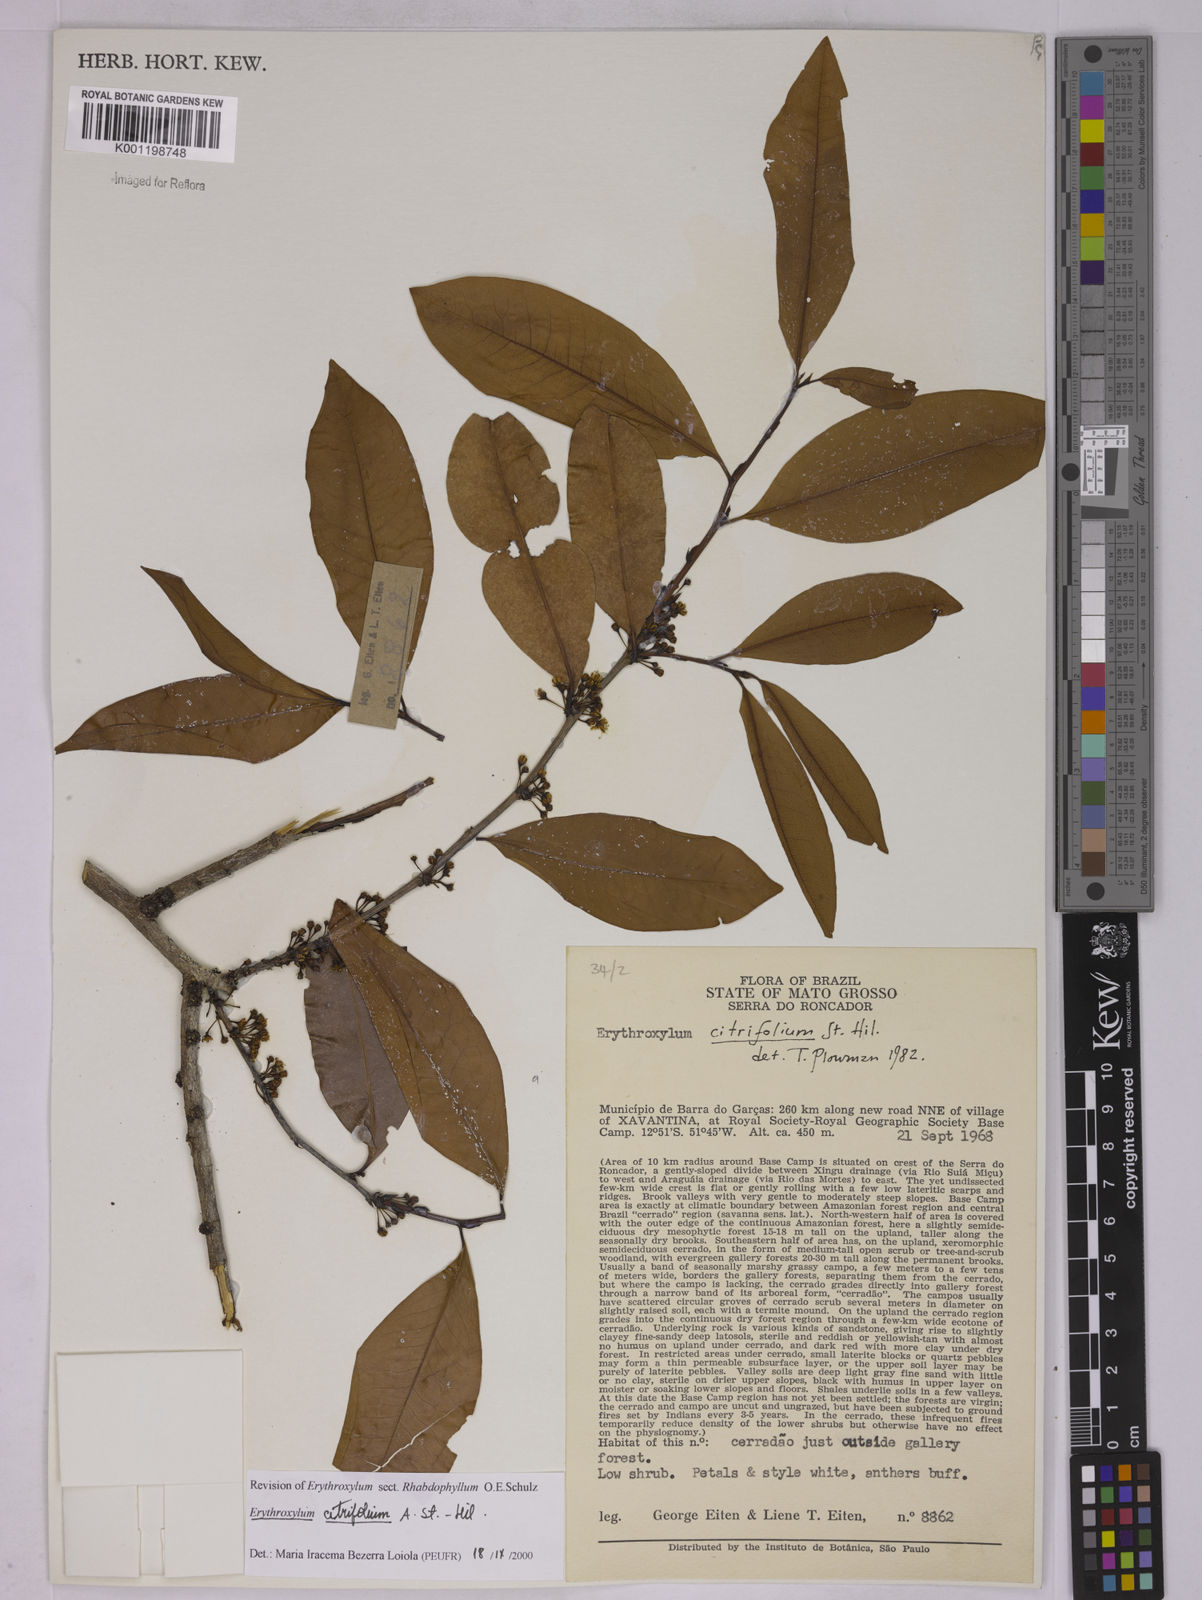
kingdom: Plantae
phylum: Tracheophyta
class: Magnoliopsida
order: Malpighiales
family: Erythroxylaceae
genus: Erythroxylum
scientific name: Erythroxylum citrifolium
